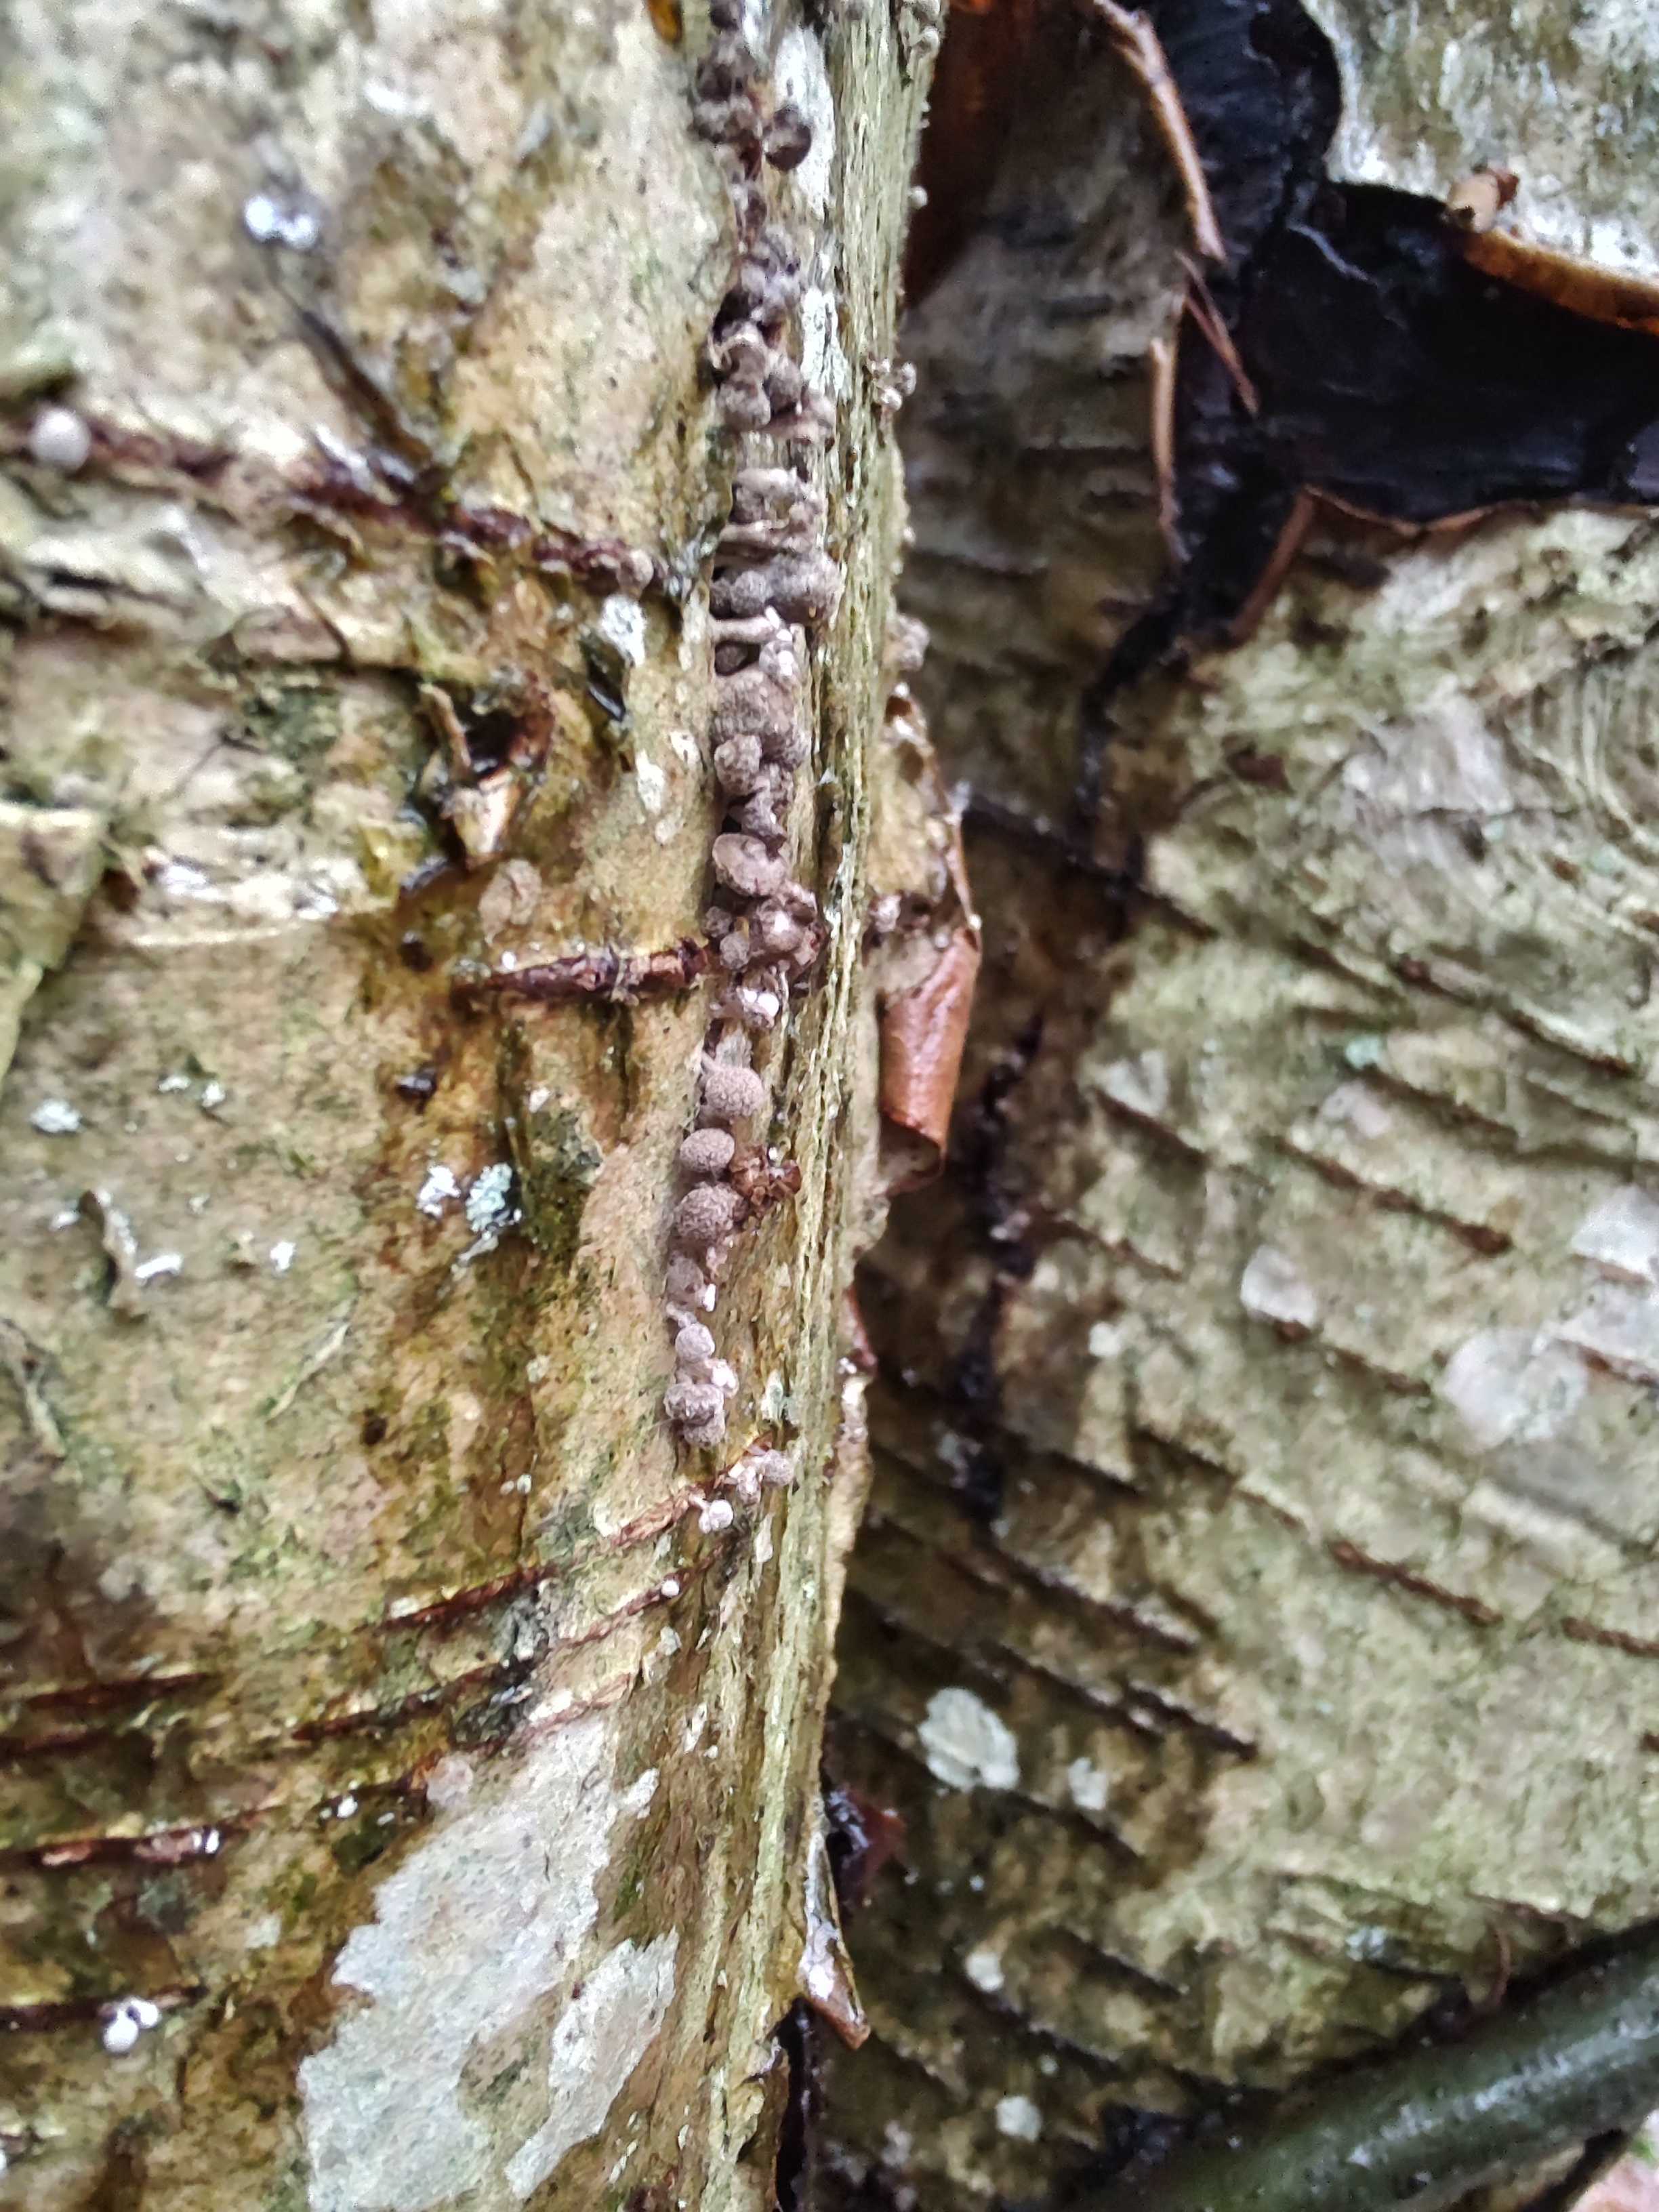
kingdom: Fungi
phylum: Basidiomycota
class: Atractiellomycetes
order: Atractiellales
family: Phleogenaceae
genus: Phleogena
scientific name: Phleogena faginea
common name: pudderkølle
